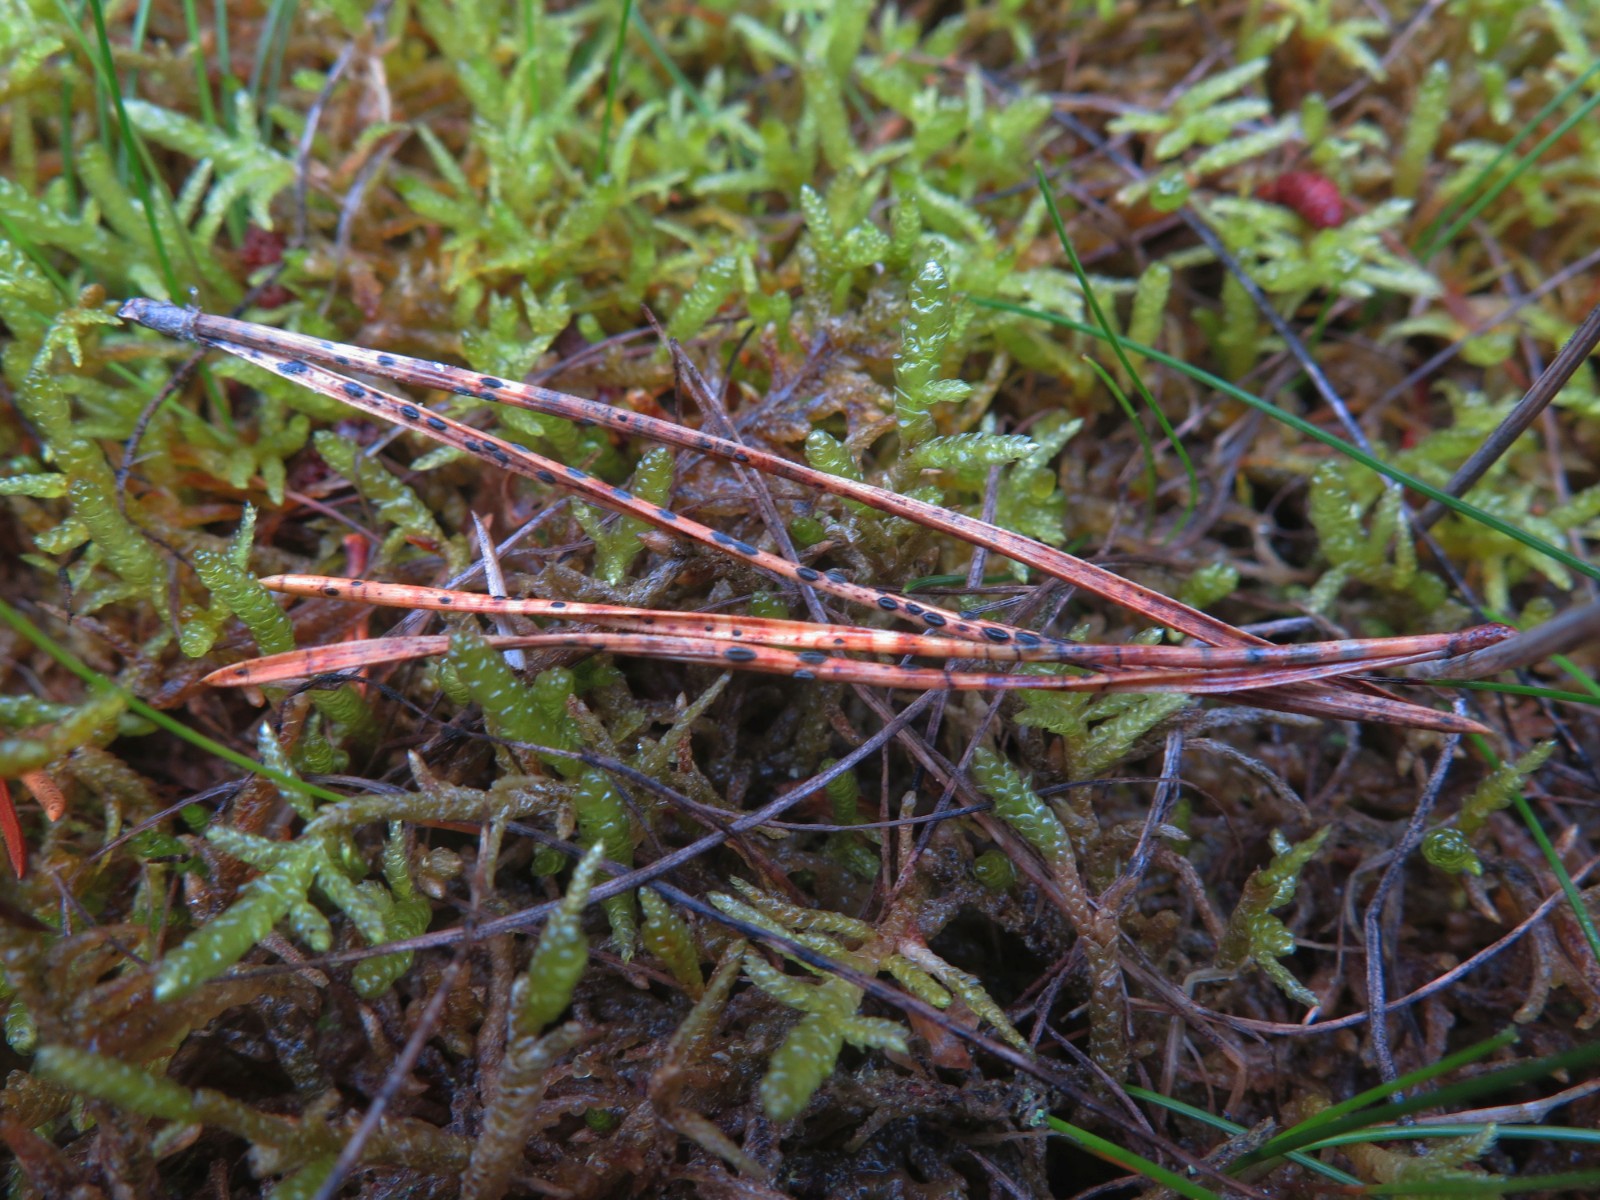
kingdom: Fungi
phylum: Ascomycota
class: Leotiomycetes
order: Rhytismatales
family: Rhytismataceae
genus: Lophodermium
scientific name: Lophodermium pinastri
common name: fyrre-fureplet
